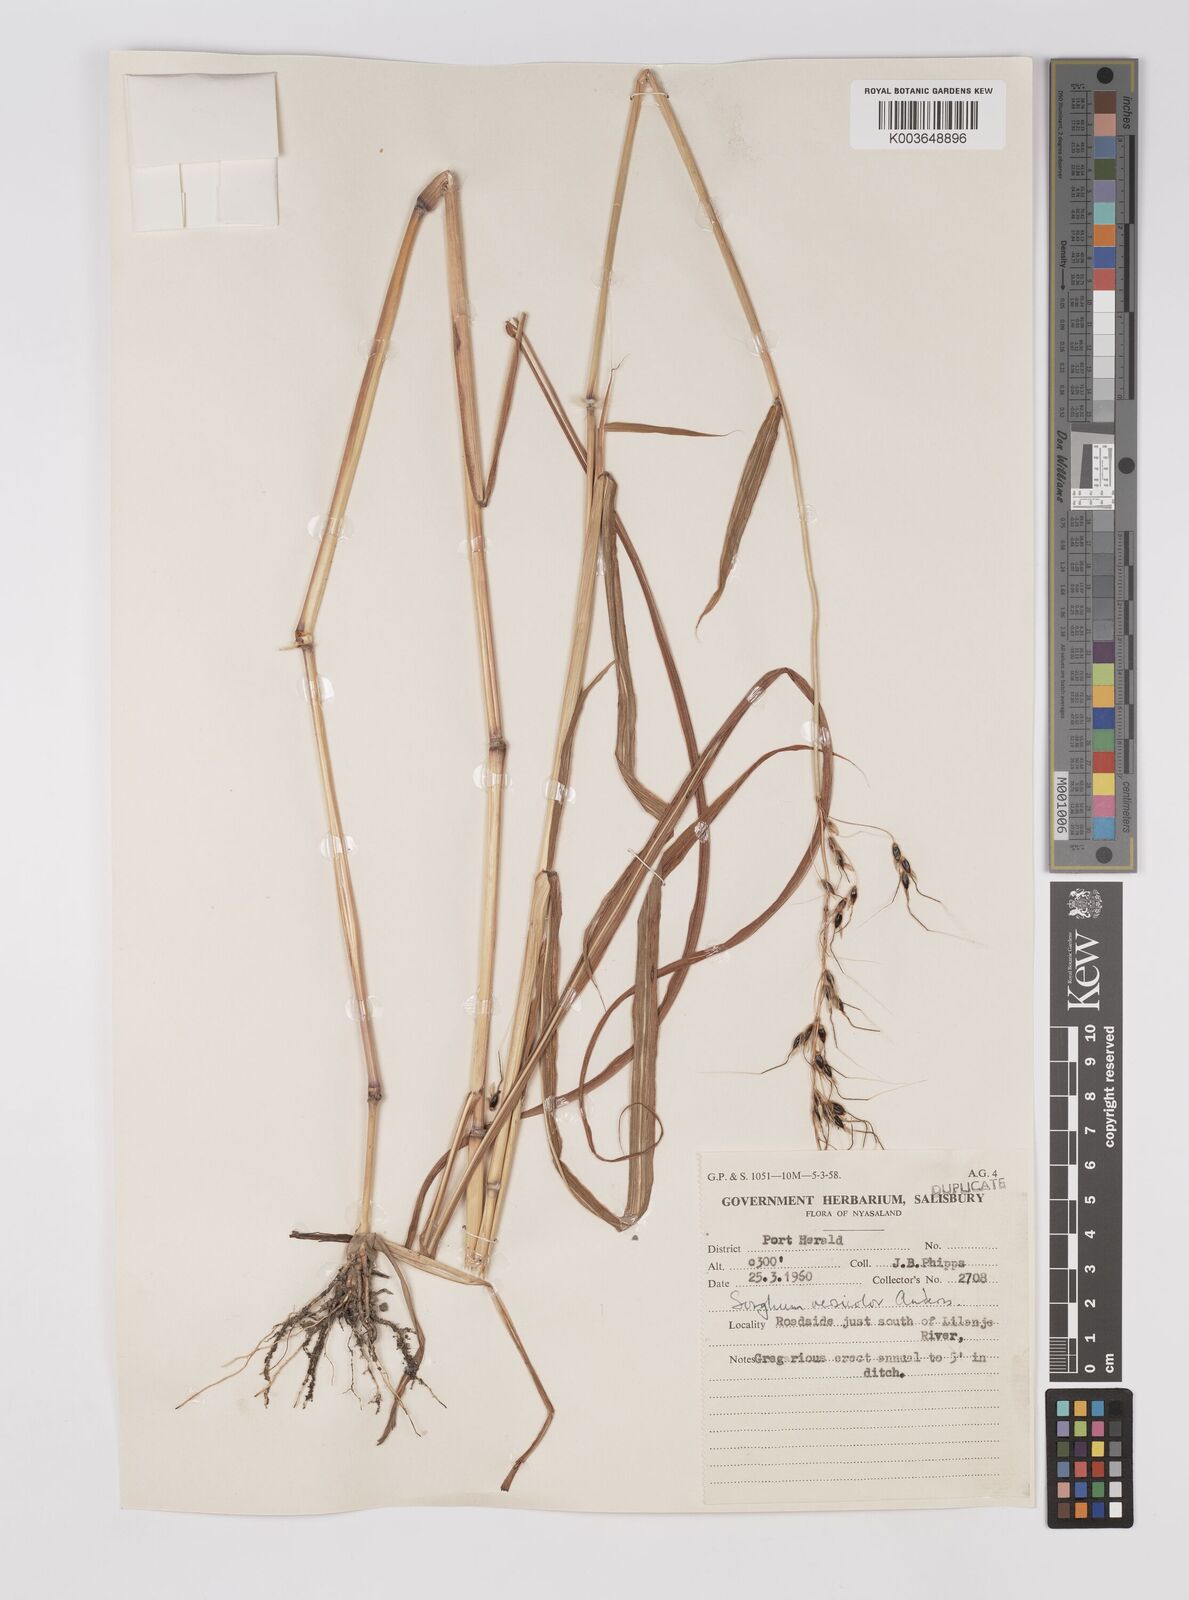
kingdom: Plantae
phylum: Tracheophyta
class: Liliopsida
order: Poales
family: Poaceae
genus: Sarga
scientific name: Sarga versicolor
